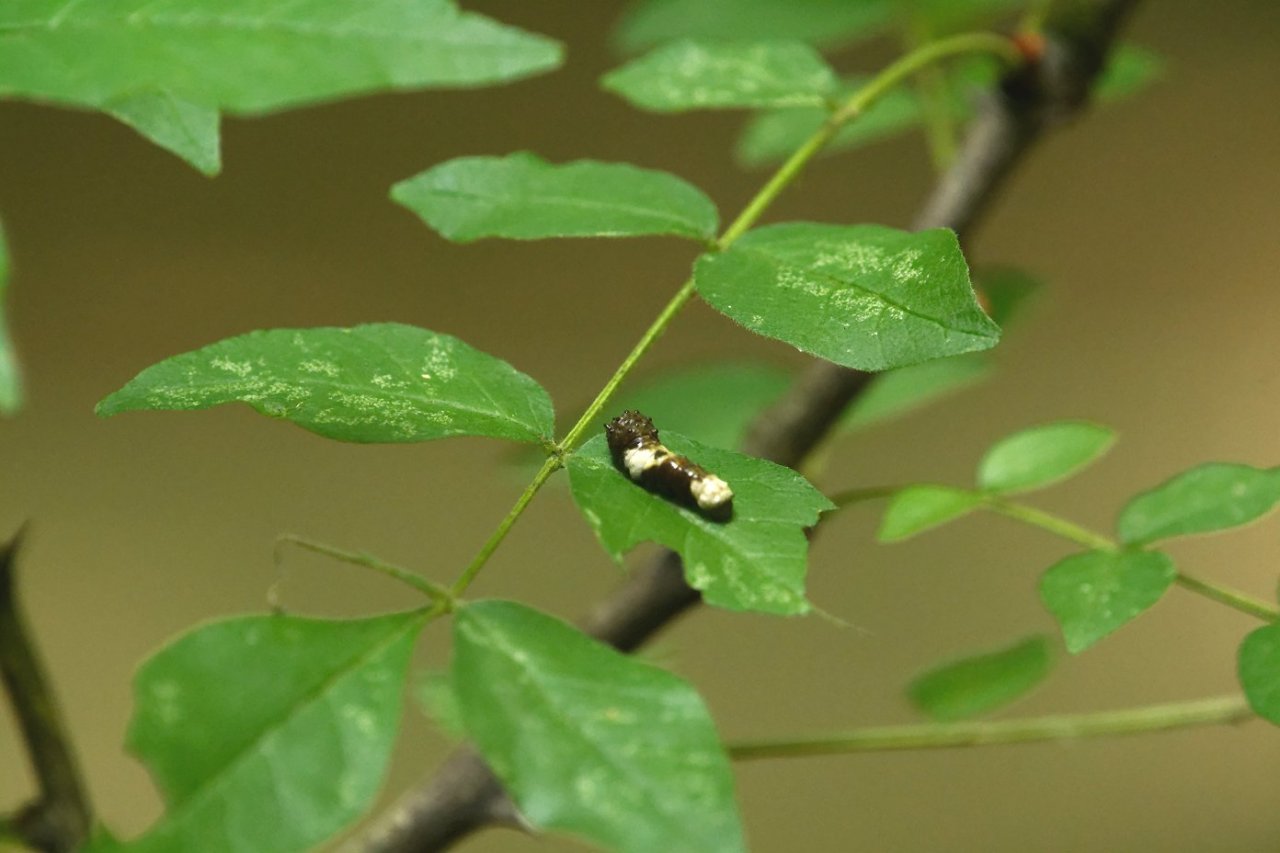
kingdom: Animalia
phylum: Arthropoda
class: Insecta
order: Lepidoptera
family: Papilionidae
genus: Papilio
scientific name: Papilio cresphontes
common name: Eastern Giant Swallowtail
